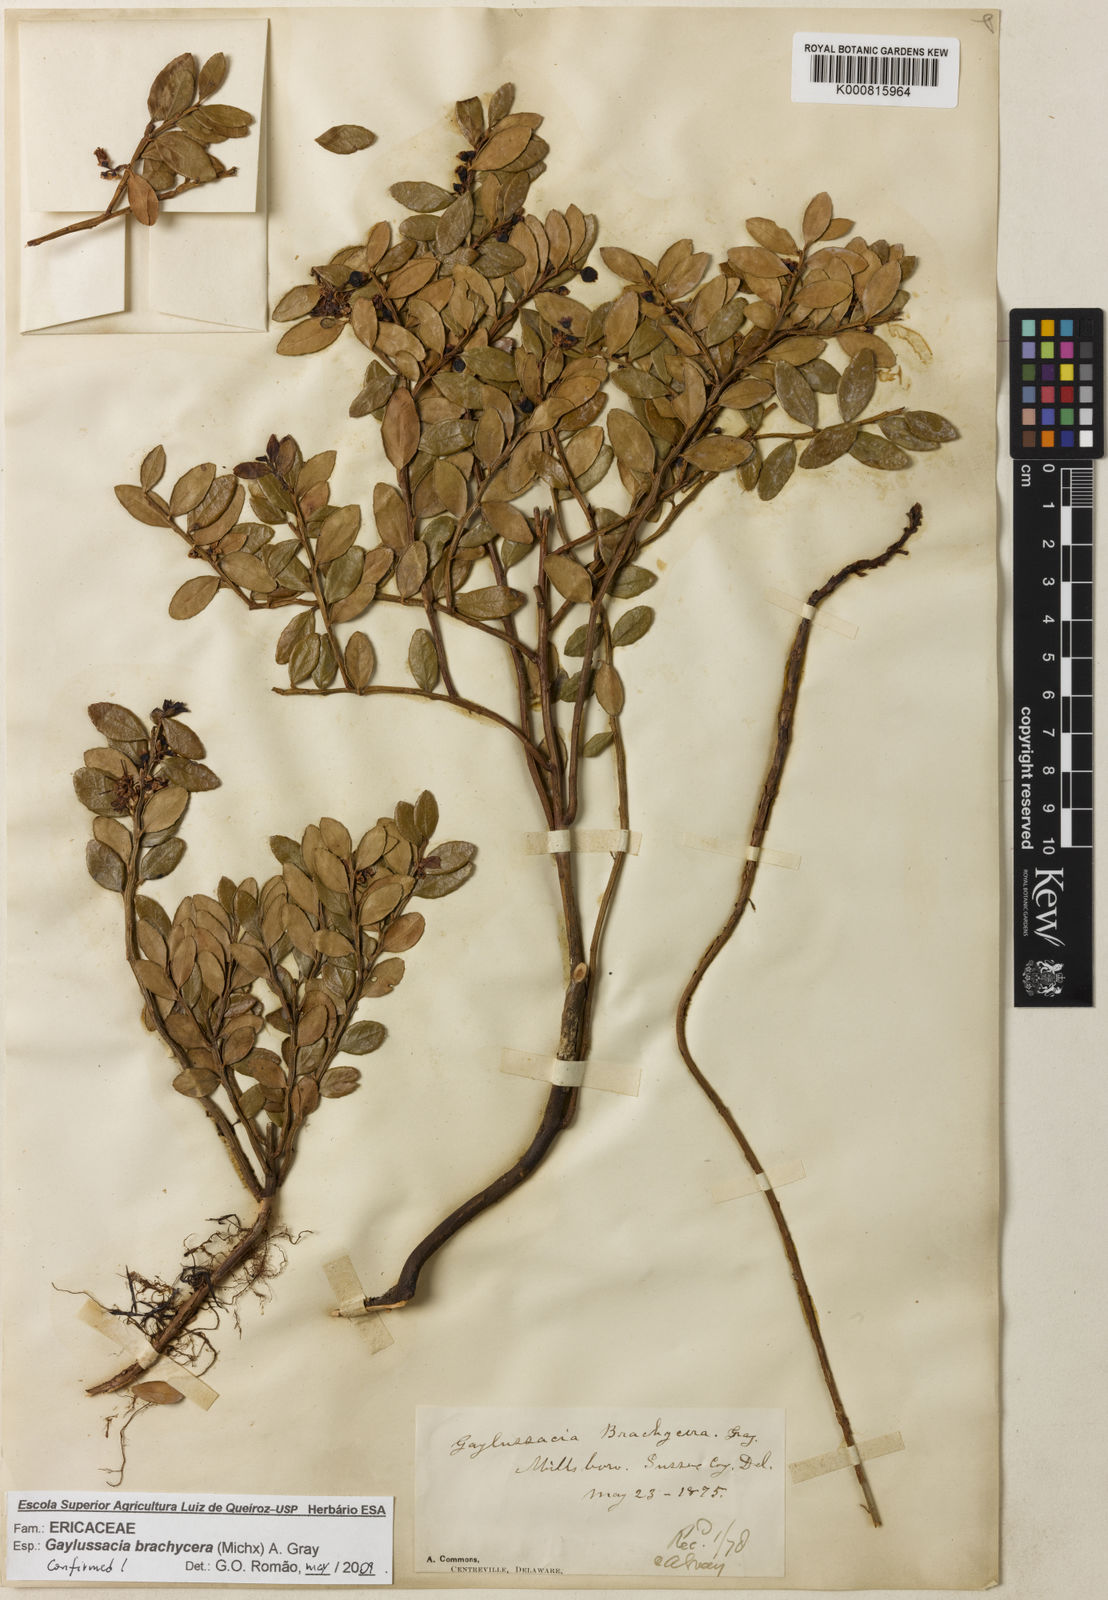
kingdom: Plantae
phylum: Tracheophyta
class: Magnoliopsida
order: Ericales
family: Ericaceae
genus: Gaylussacia
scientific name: Gaylussacia brachycera
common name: Box huckleberry
